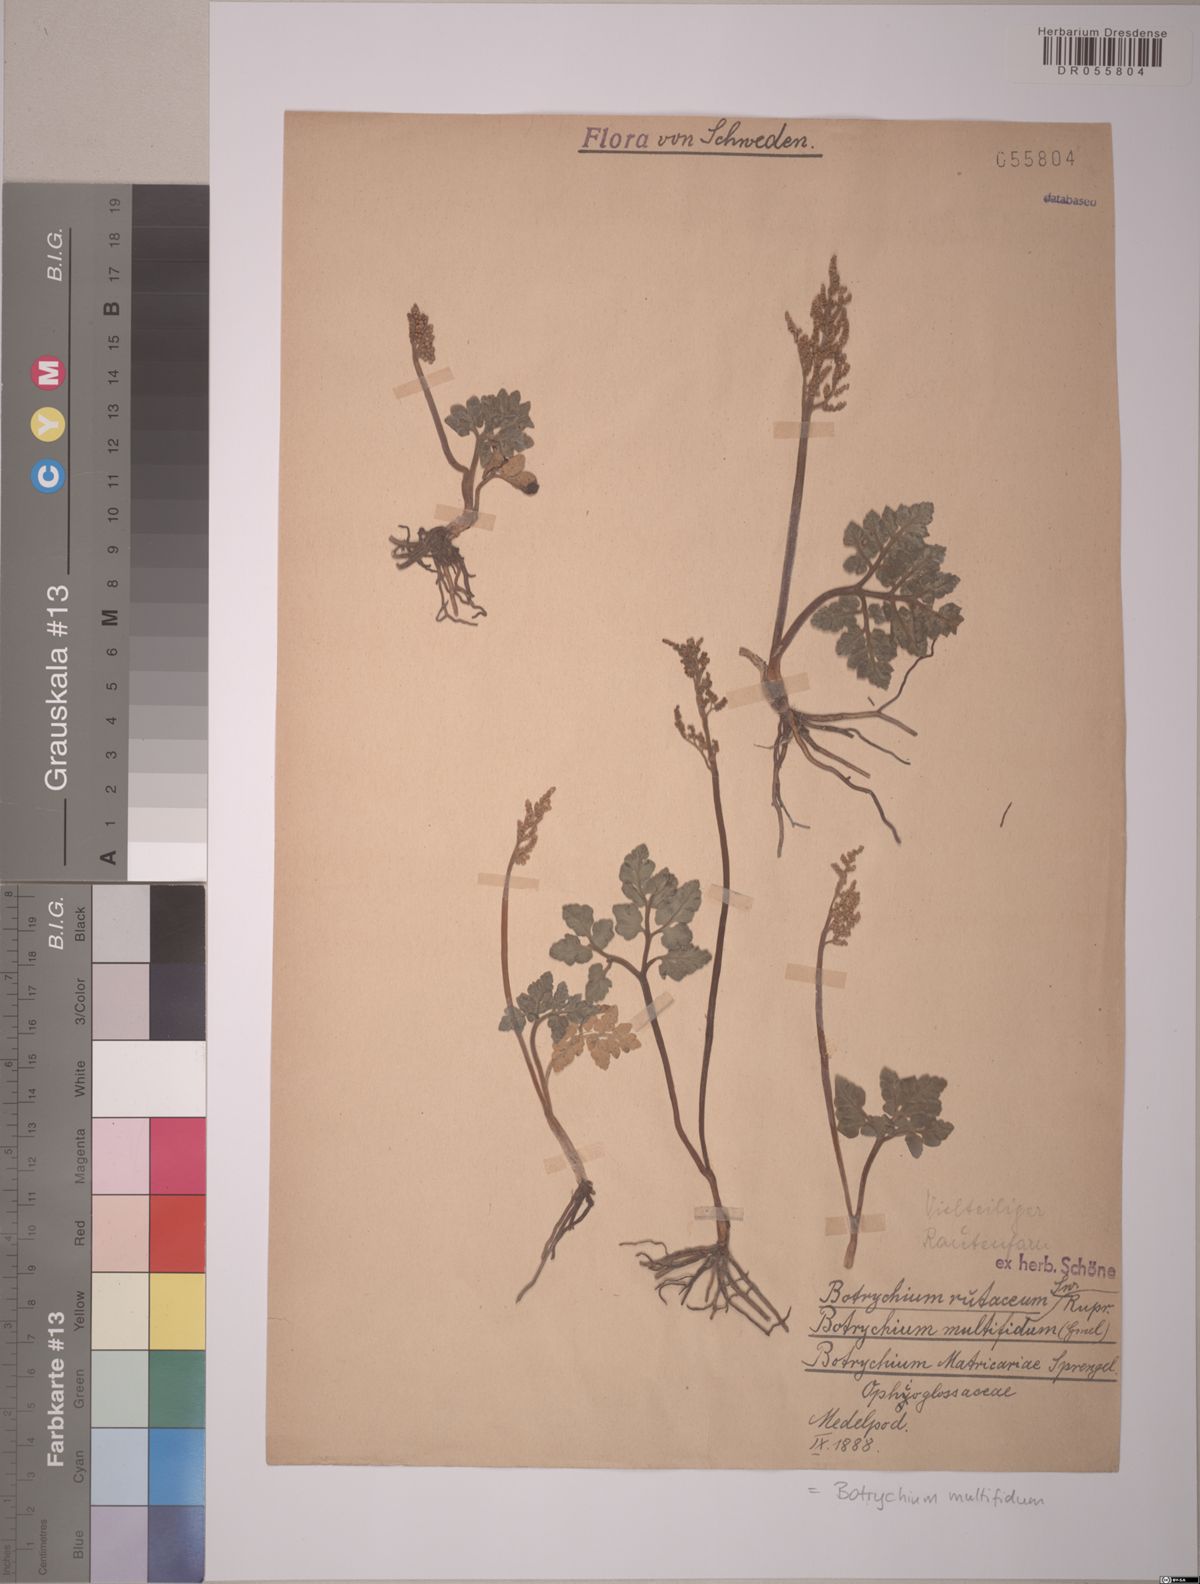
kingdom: Plantae
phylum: Tracheophyta
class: Polypodiopsida
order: Ophioglossales
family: Ophioglossaceae
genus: Sceptridium
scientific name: Sceptridium multifidum
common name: Leathery grape fern
